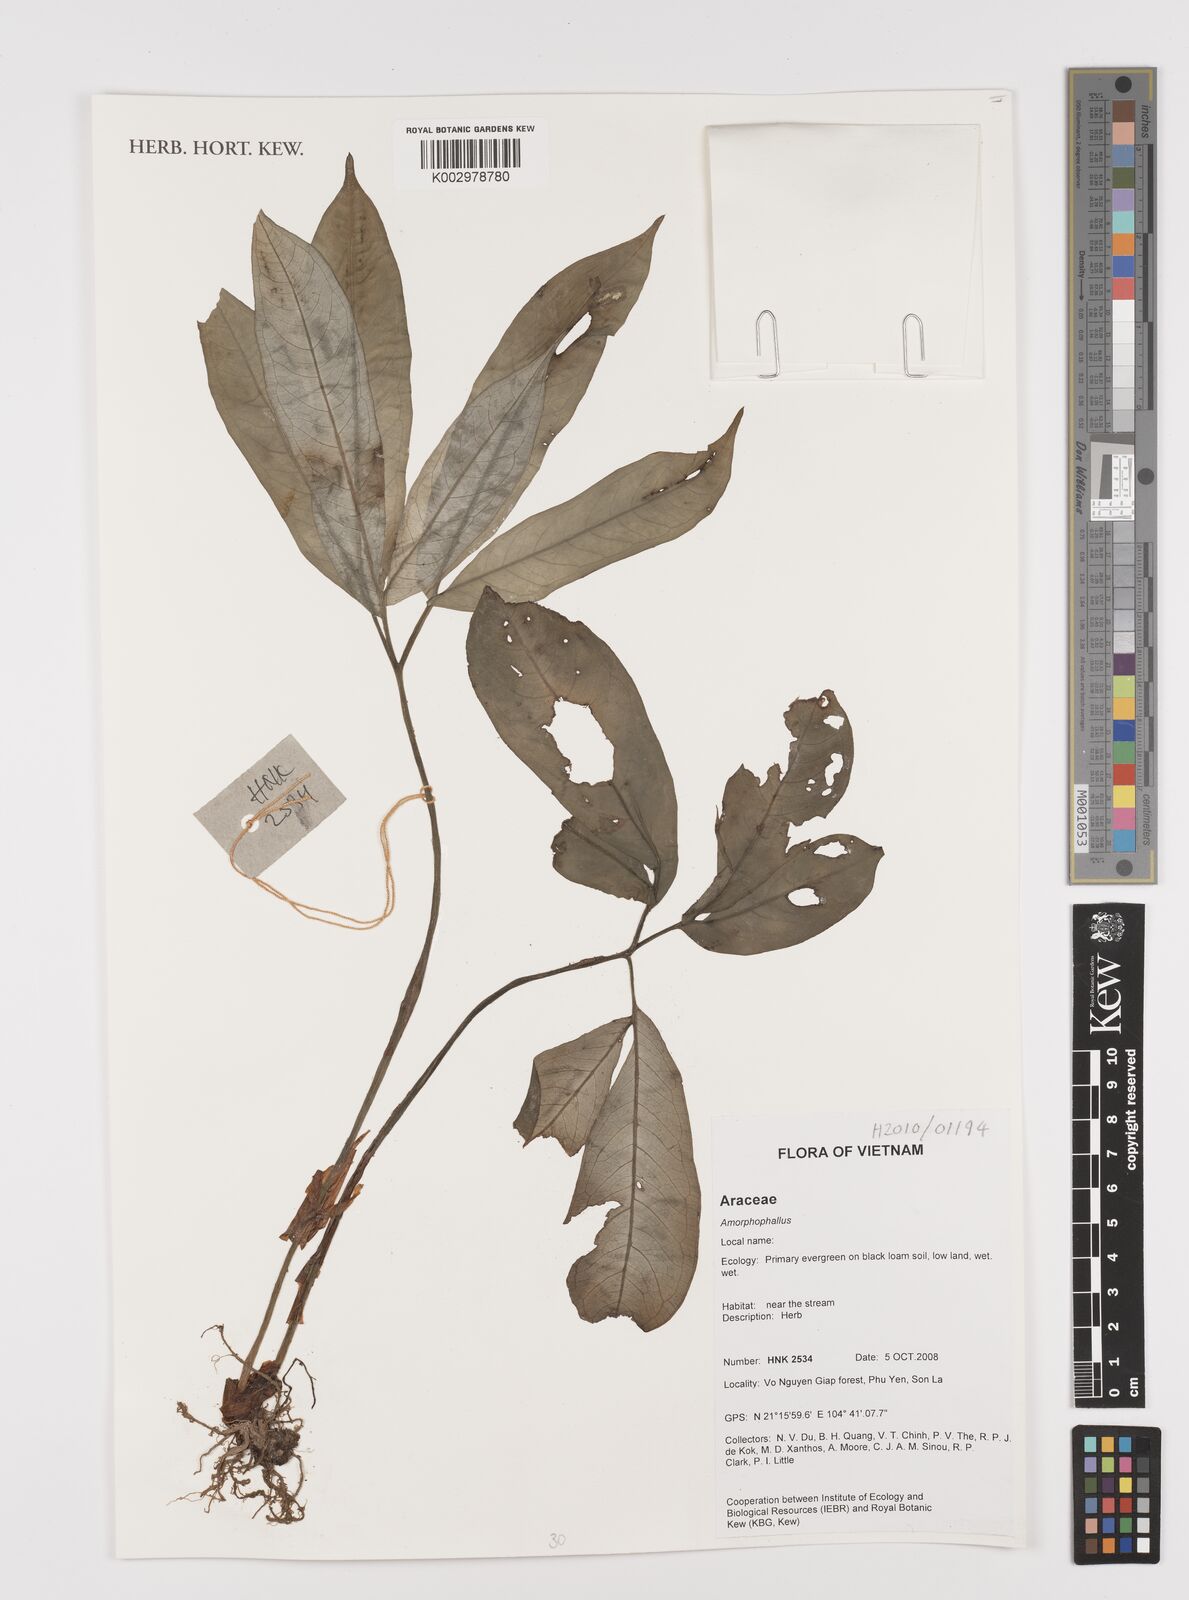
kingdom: Plantae
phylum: Tracheophyta
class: Liliopsida
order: Alismatales
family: Araceae
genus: Amorphophallus
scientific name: Amorphophallus
